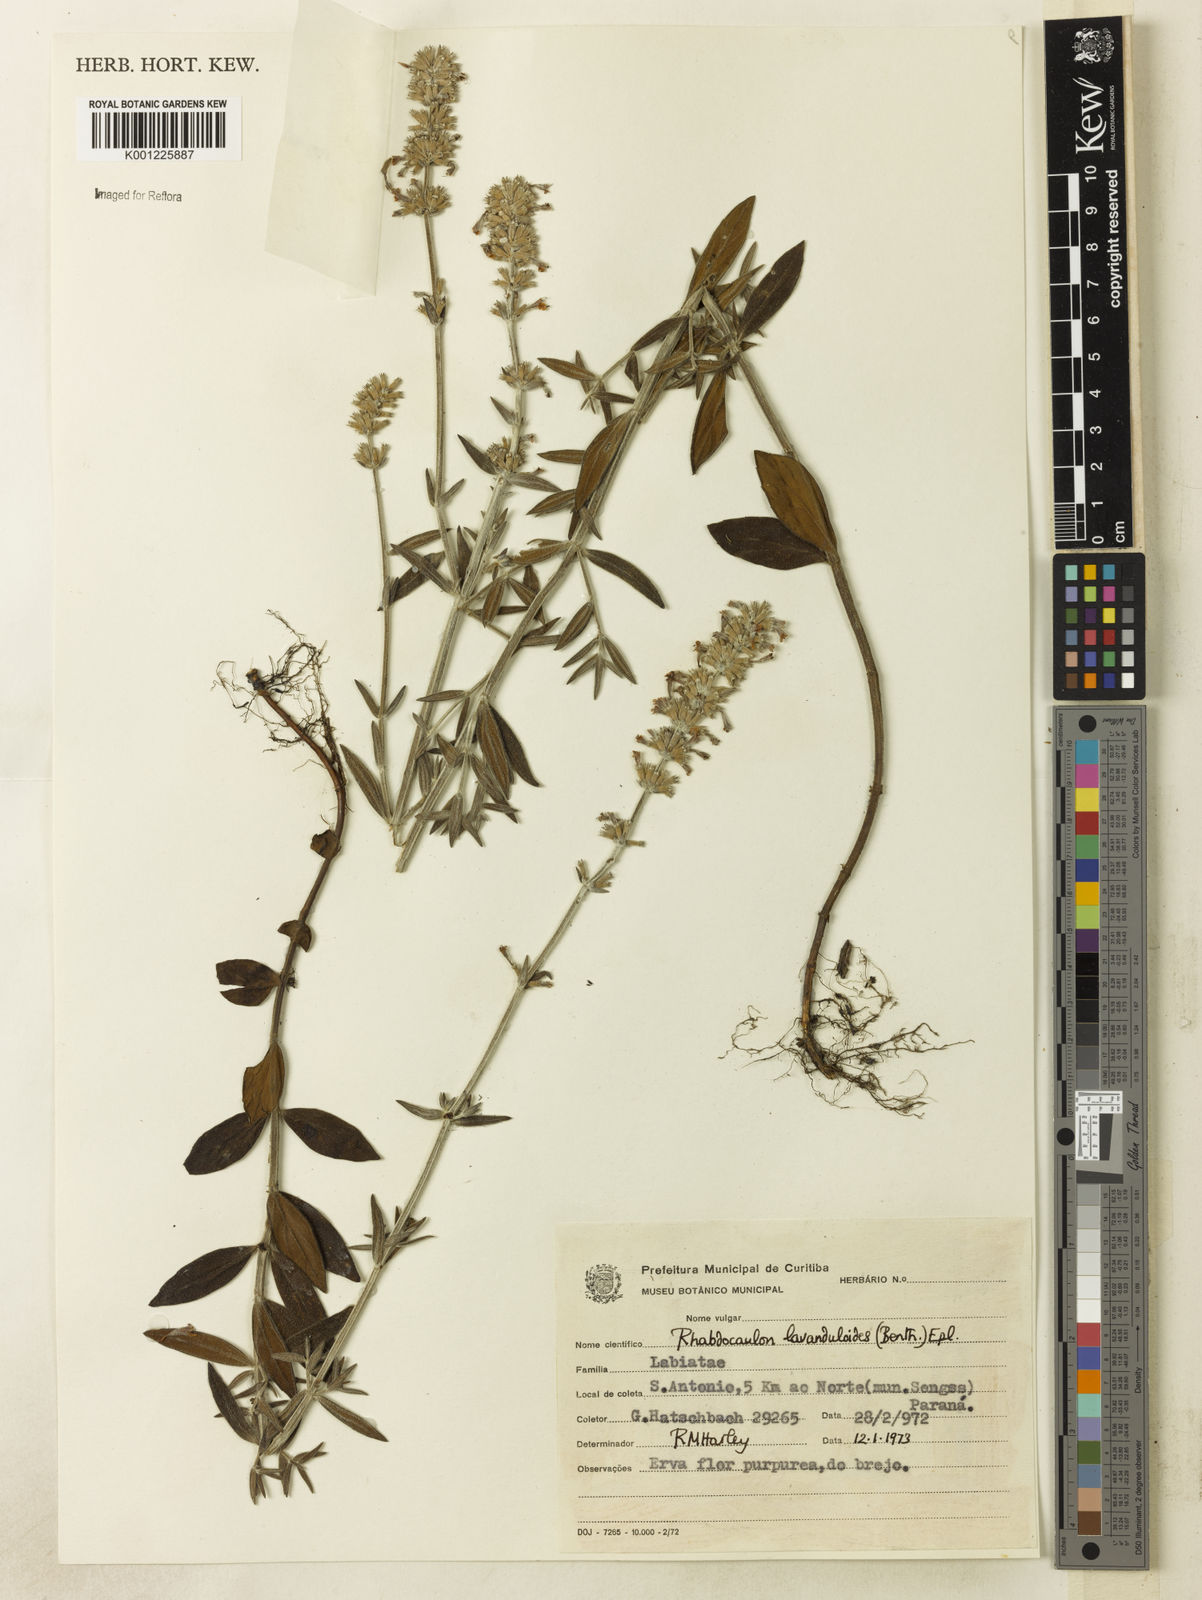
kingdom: Plantae
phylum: Tracheophyta
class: Magnoliopsida
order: Lamiales
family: Lamiaceae
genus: Rhabdocaulon
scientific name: Rhabdocaulon lavanduloides
